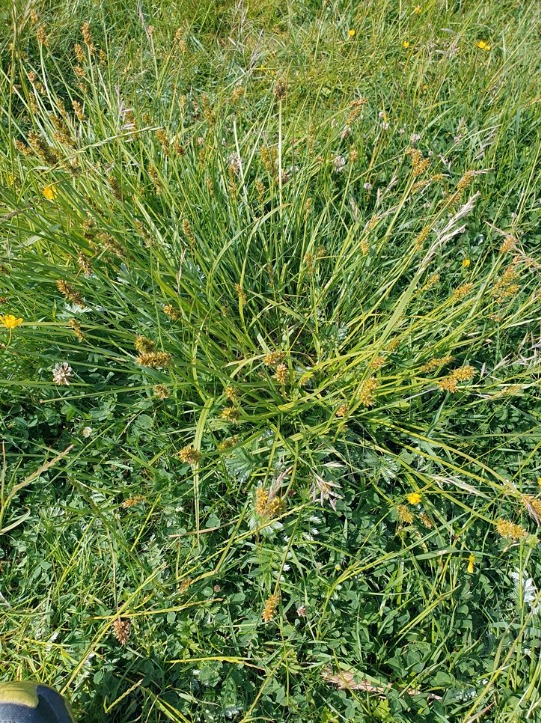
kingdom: Plantae
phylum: Tracheophyta
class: Liliopsida
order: Poales
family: Cyperaceae
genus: Carex
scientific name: Carex otrubae
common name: Sylt-star
